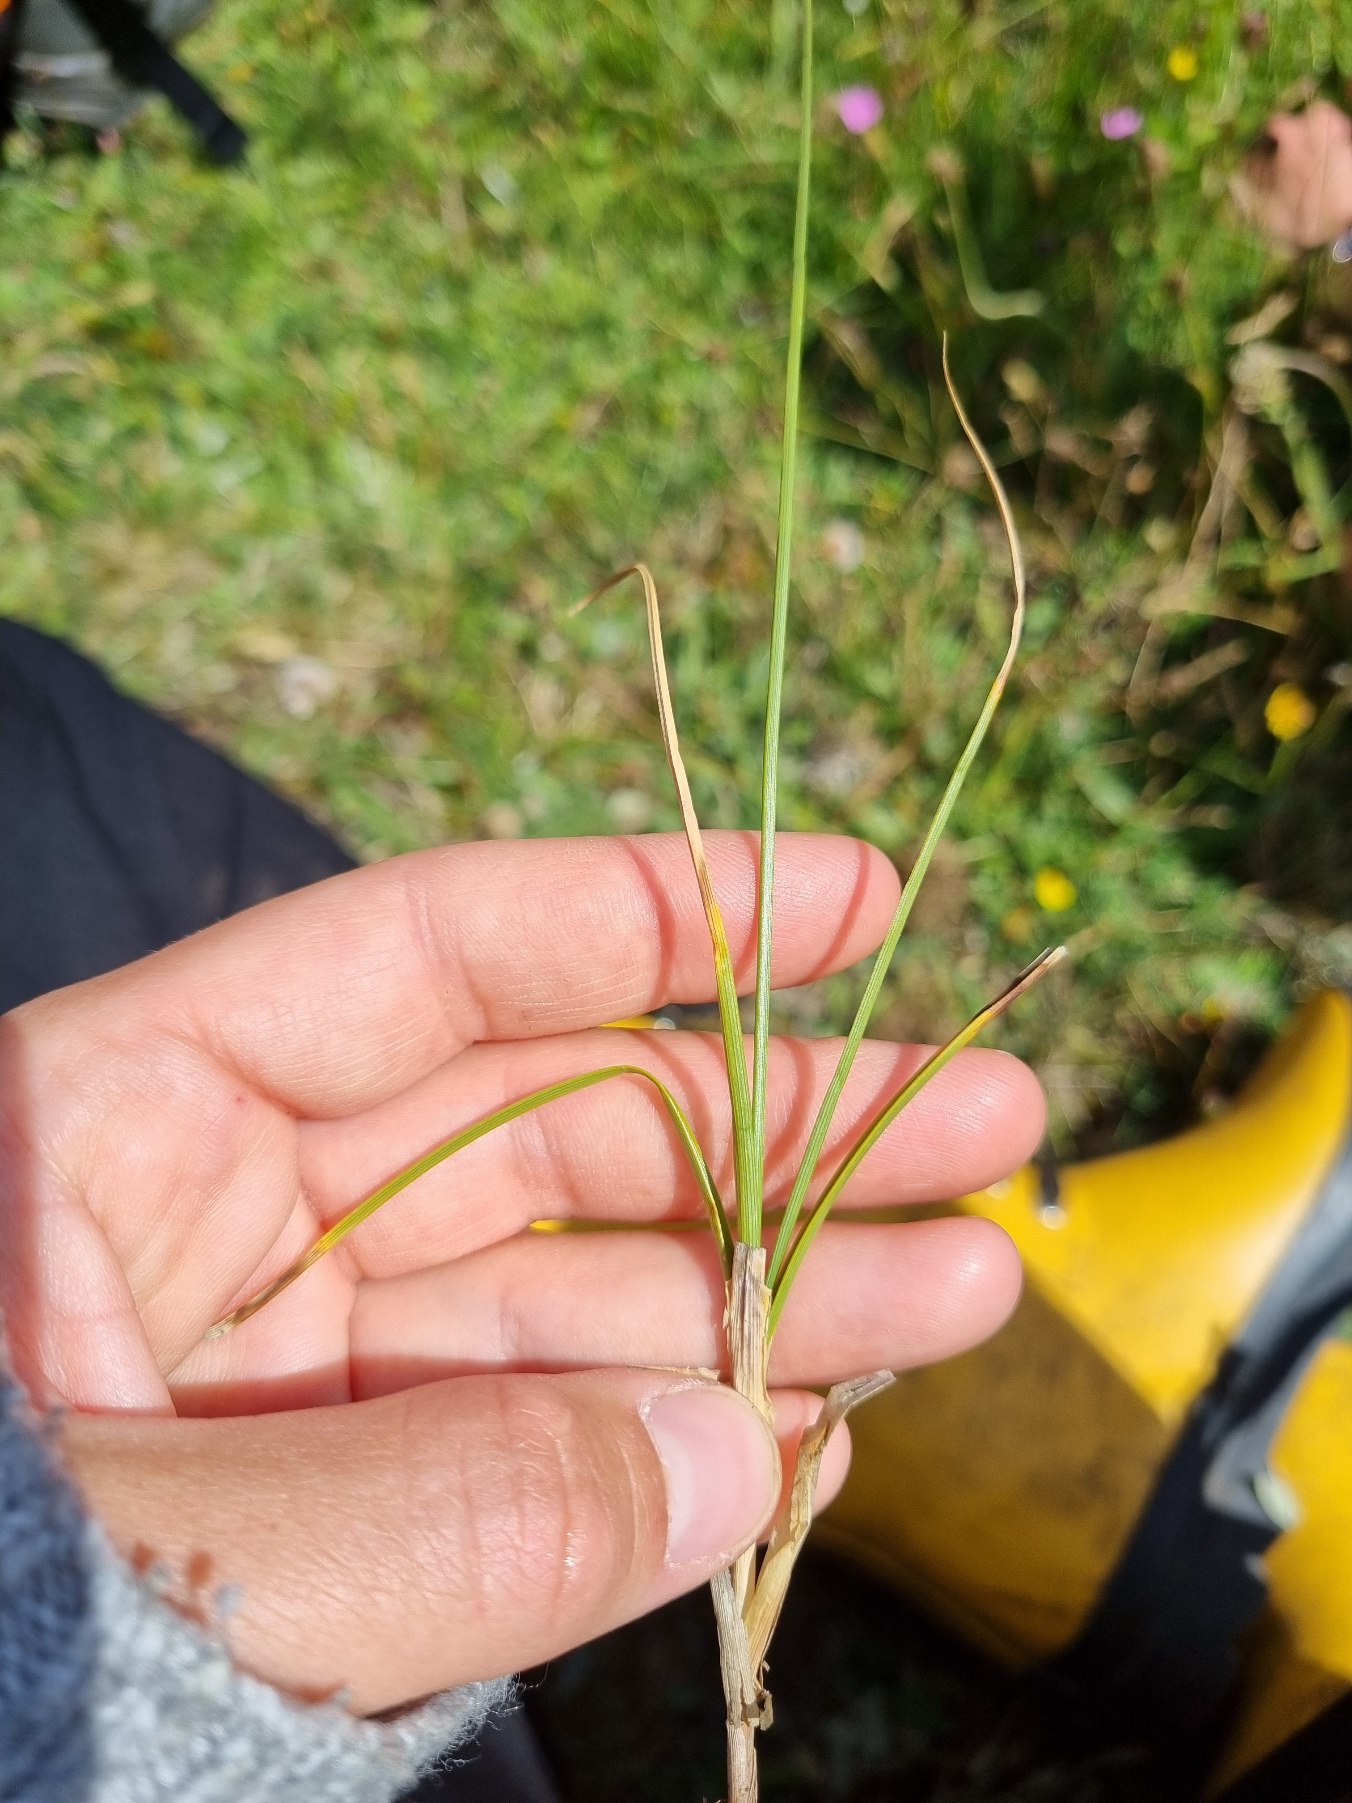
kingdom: Plantae
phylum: Tracheophyta
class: Liliopsida
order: Poales
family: Cyperaceae
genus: Carex
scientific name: Carex arenaria
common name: Sand-star
